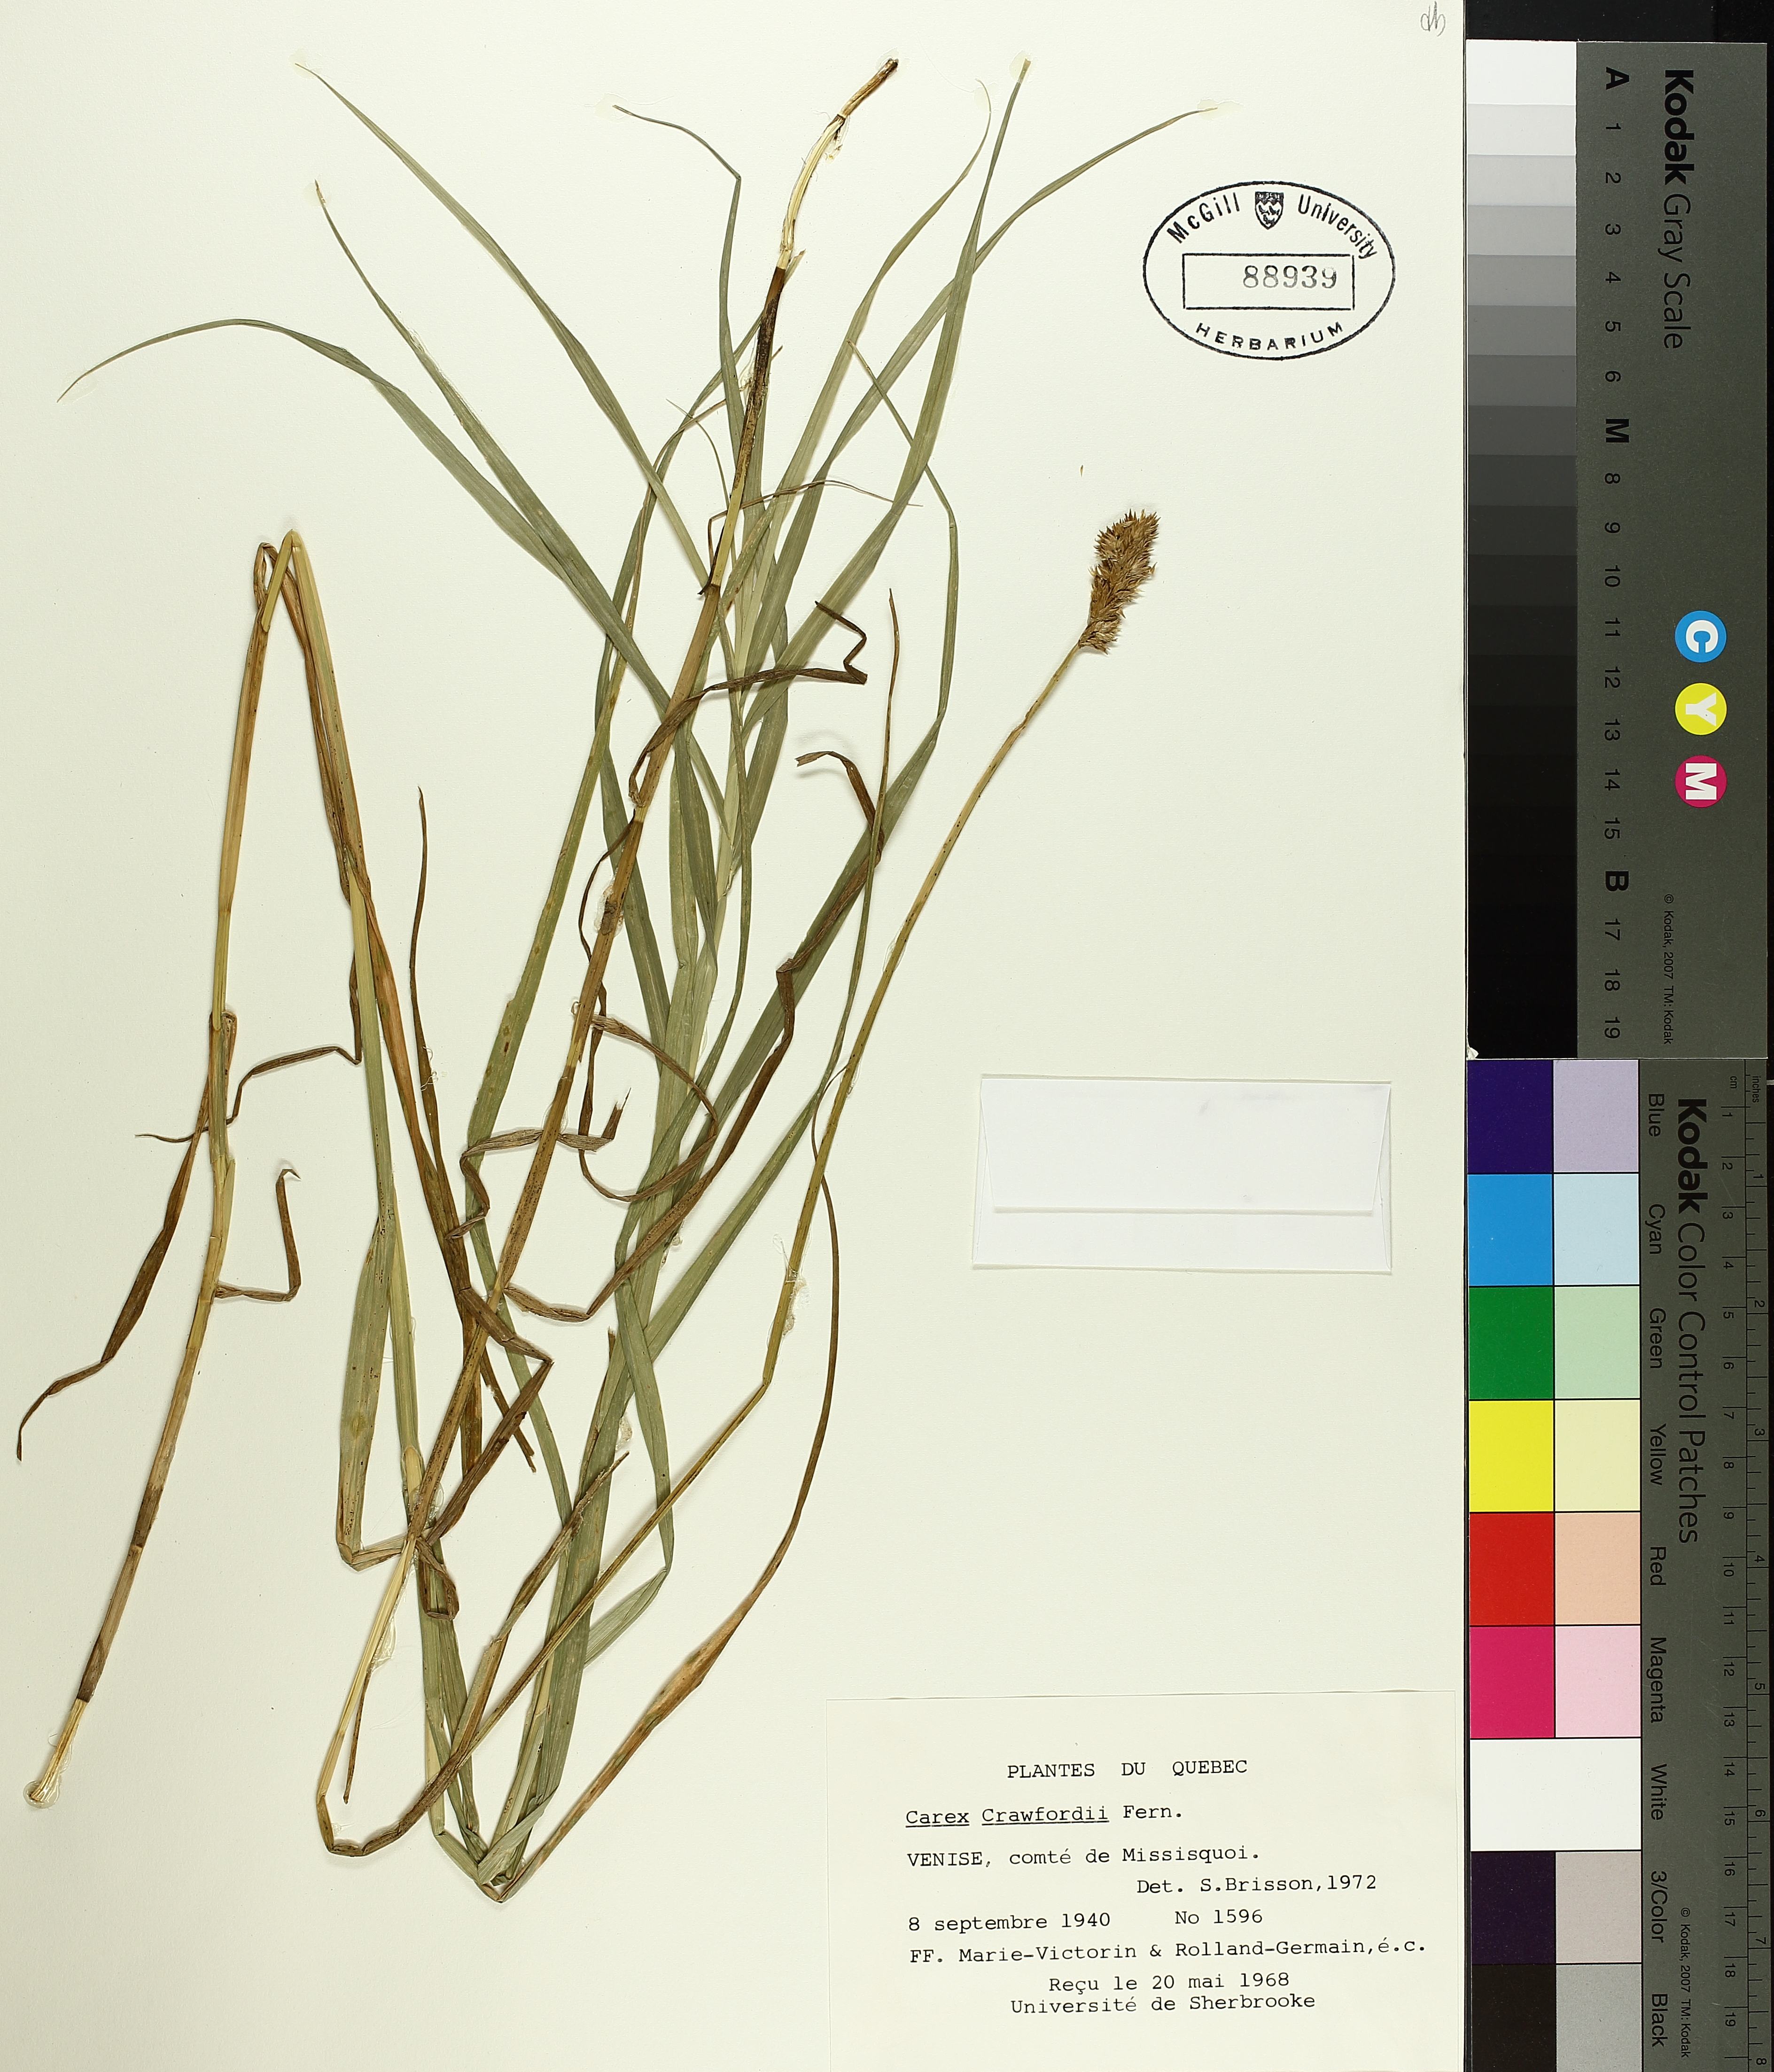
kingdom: Plantae
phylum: Tracheophyta
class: Liliopsida
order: Poales
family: Cyperaceae
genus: Carex
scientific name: Carex crawfordii
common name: Crawford's sedge
